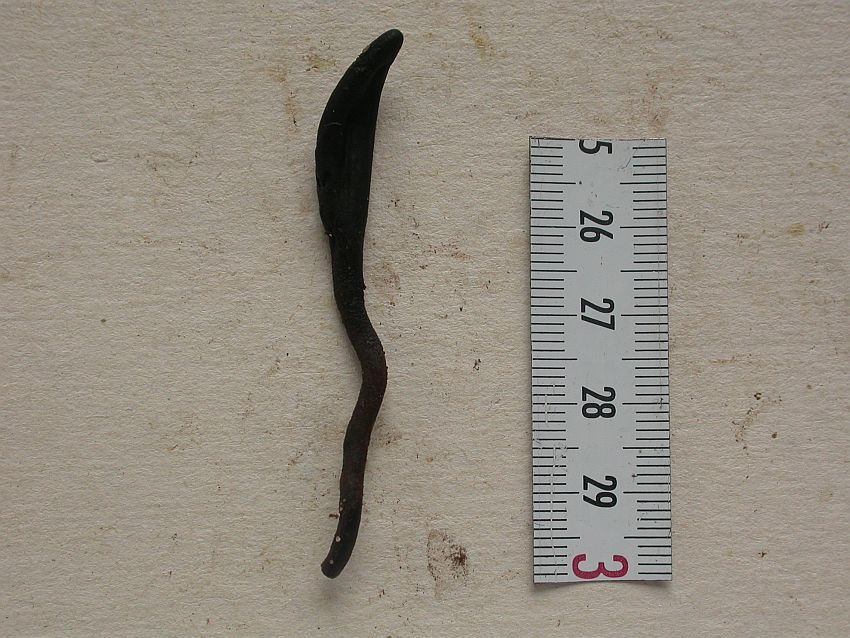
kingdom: Fungi
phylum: Ascomycota
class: Geoglossomycetes
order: Geoglossales
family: Geoglossaceae
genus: Hemileucoglossum
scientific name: Hemileucoglossum elongatum
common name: småsporet jordtunge
